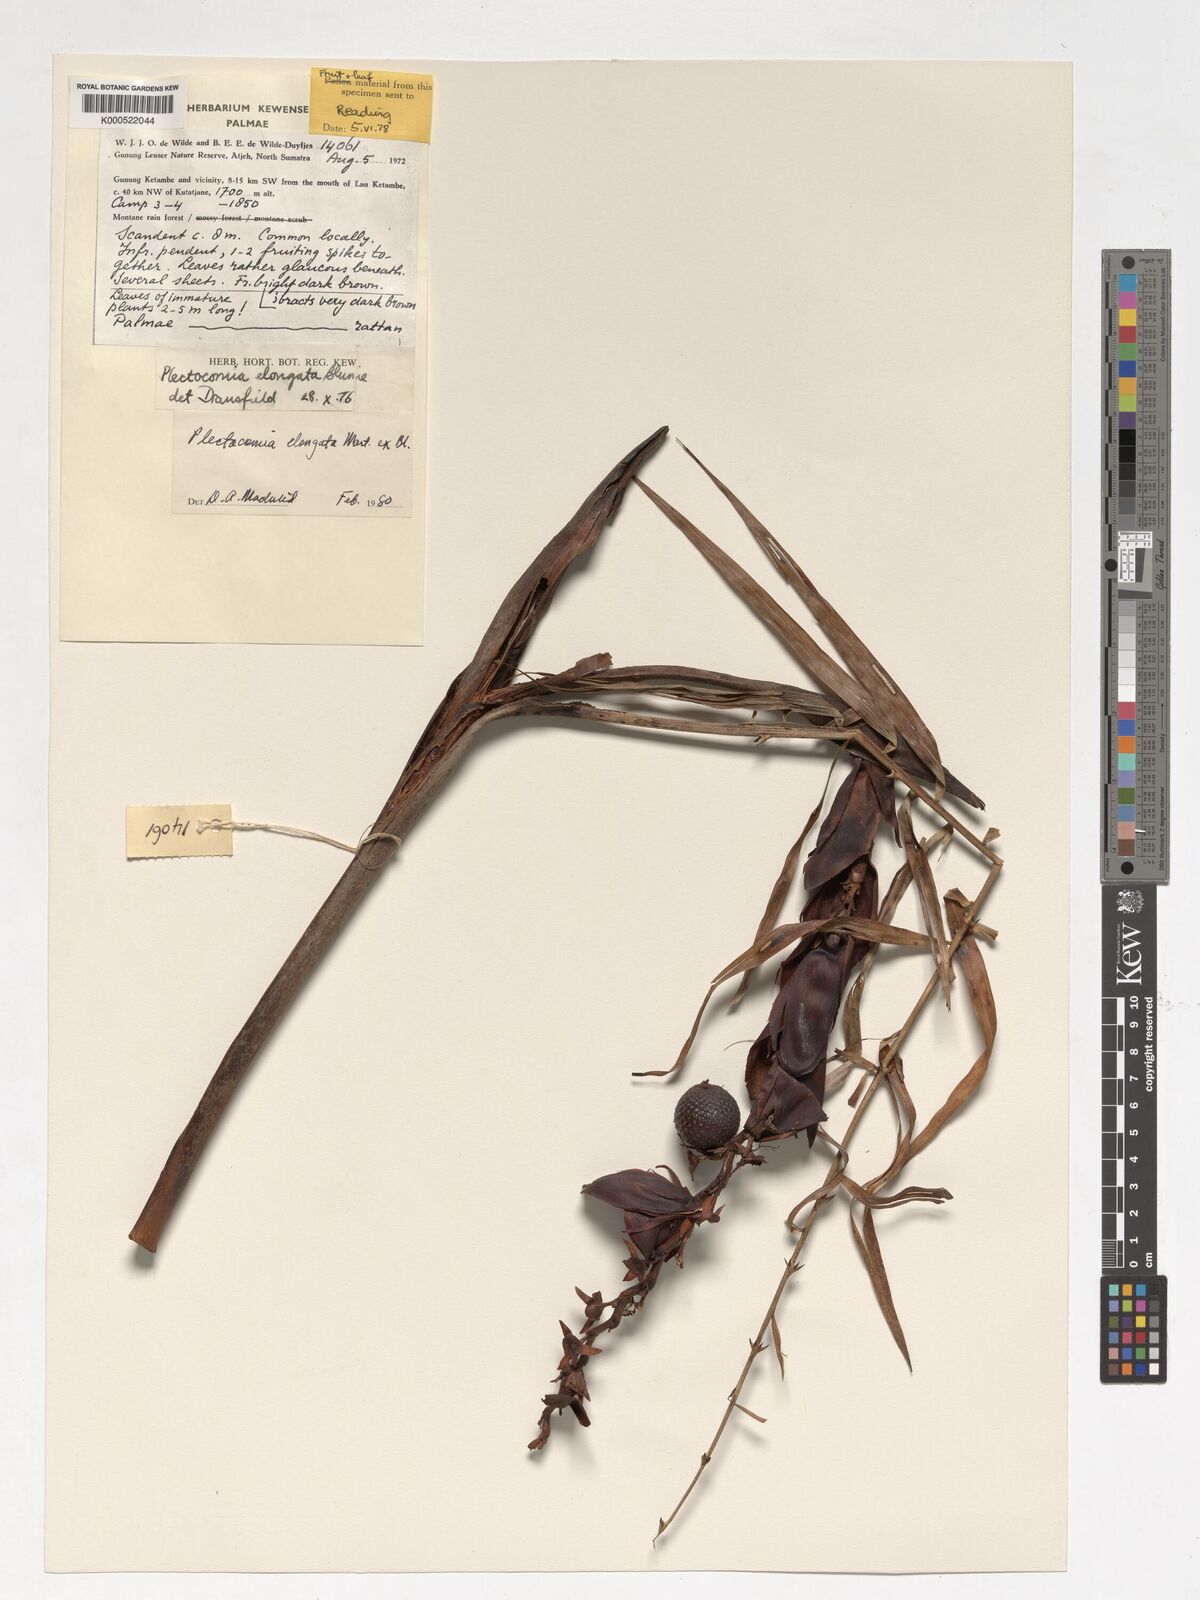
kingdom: Plantae
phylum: Tracheophyta
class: Liliopsida
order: Arecales
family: Arecaceae
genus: Plectocomia
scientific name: Plectocomia elongata
